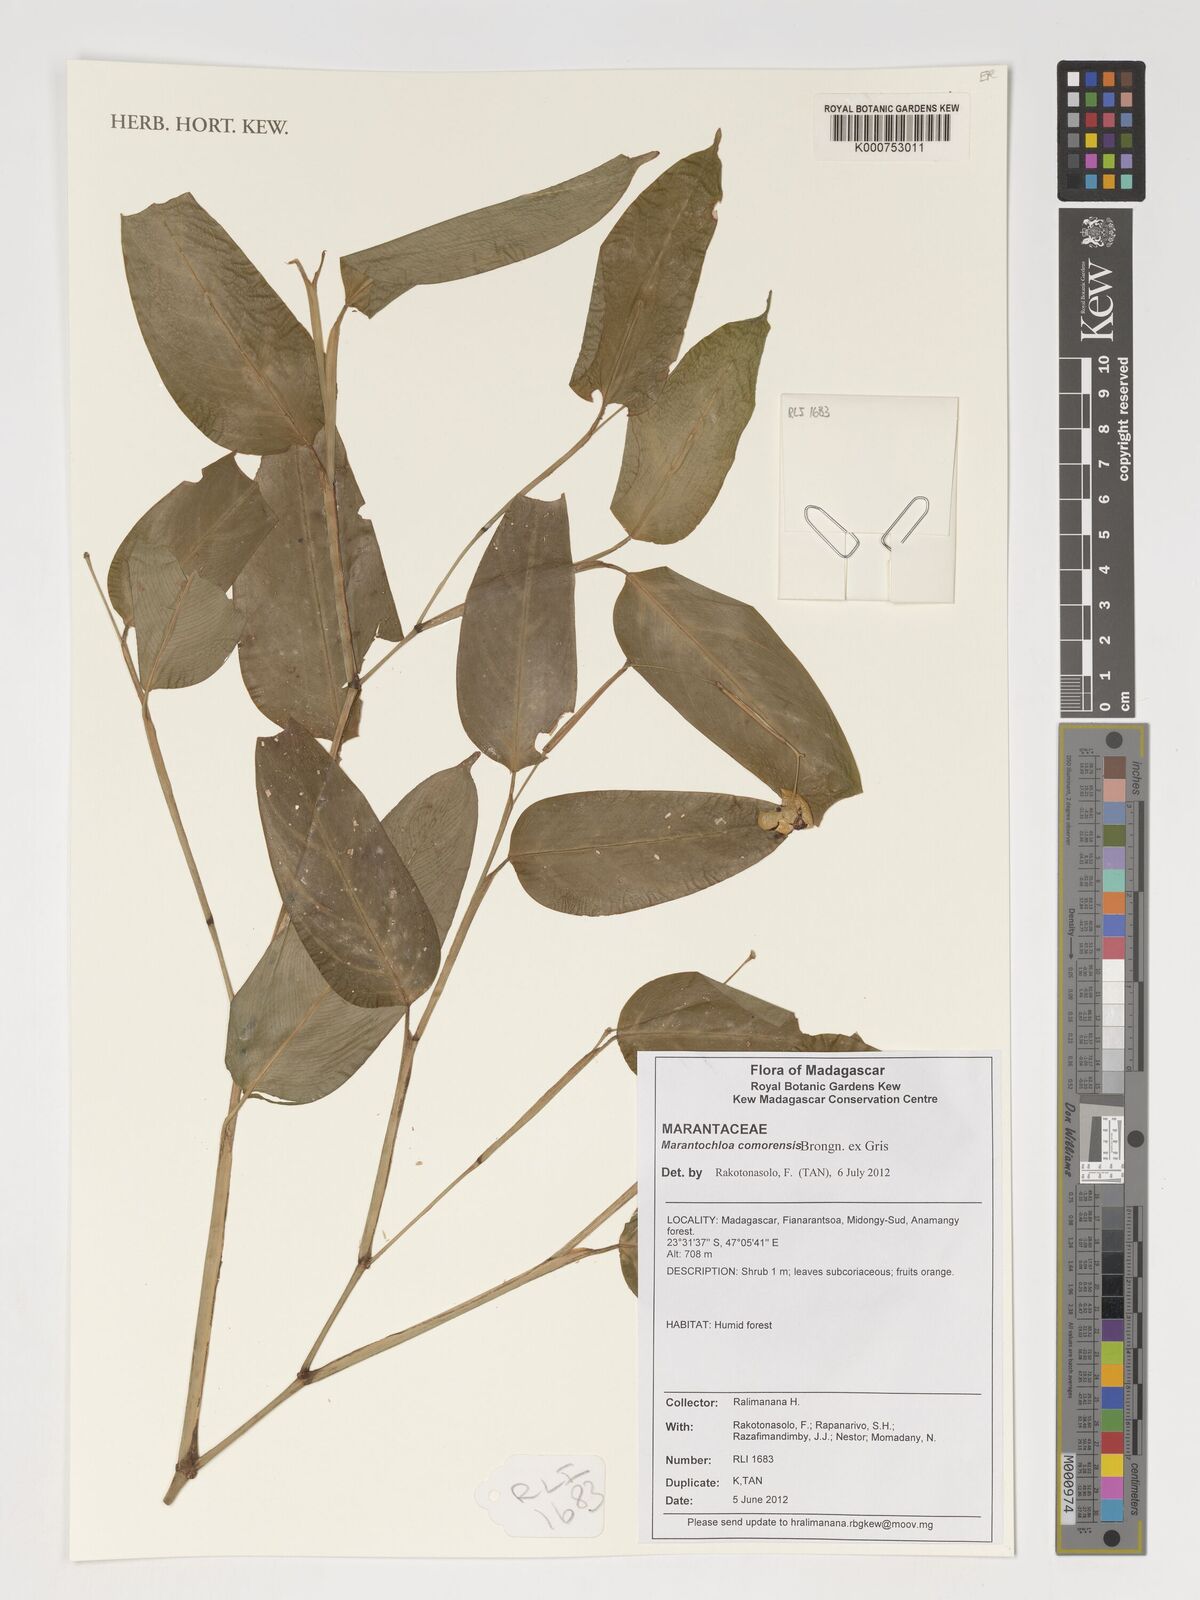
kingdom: Plantae
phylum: Tracheophyta
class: Liliopsida
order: Zingiberales
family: Marantaceae
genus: Marantochloa
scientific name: Marantochloa comorensis
